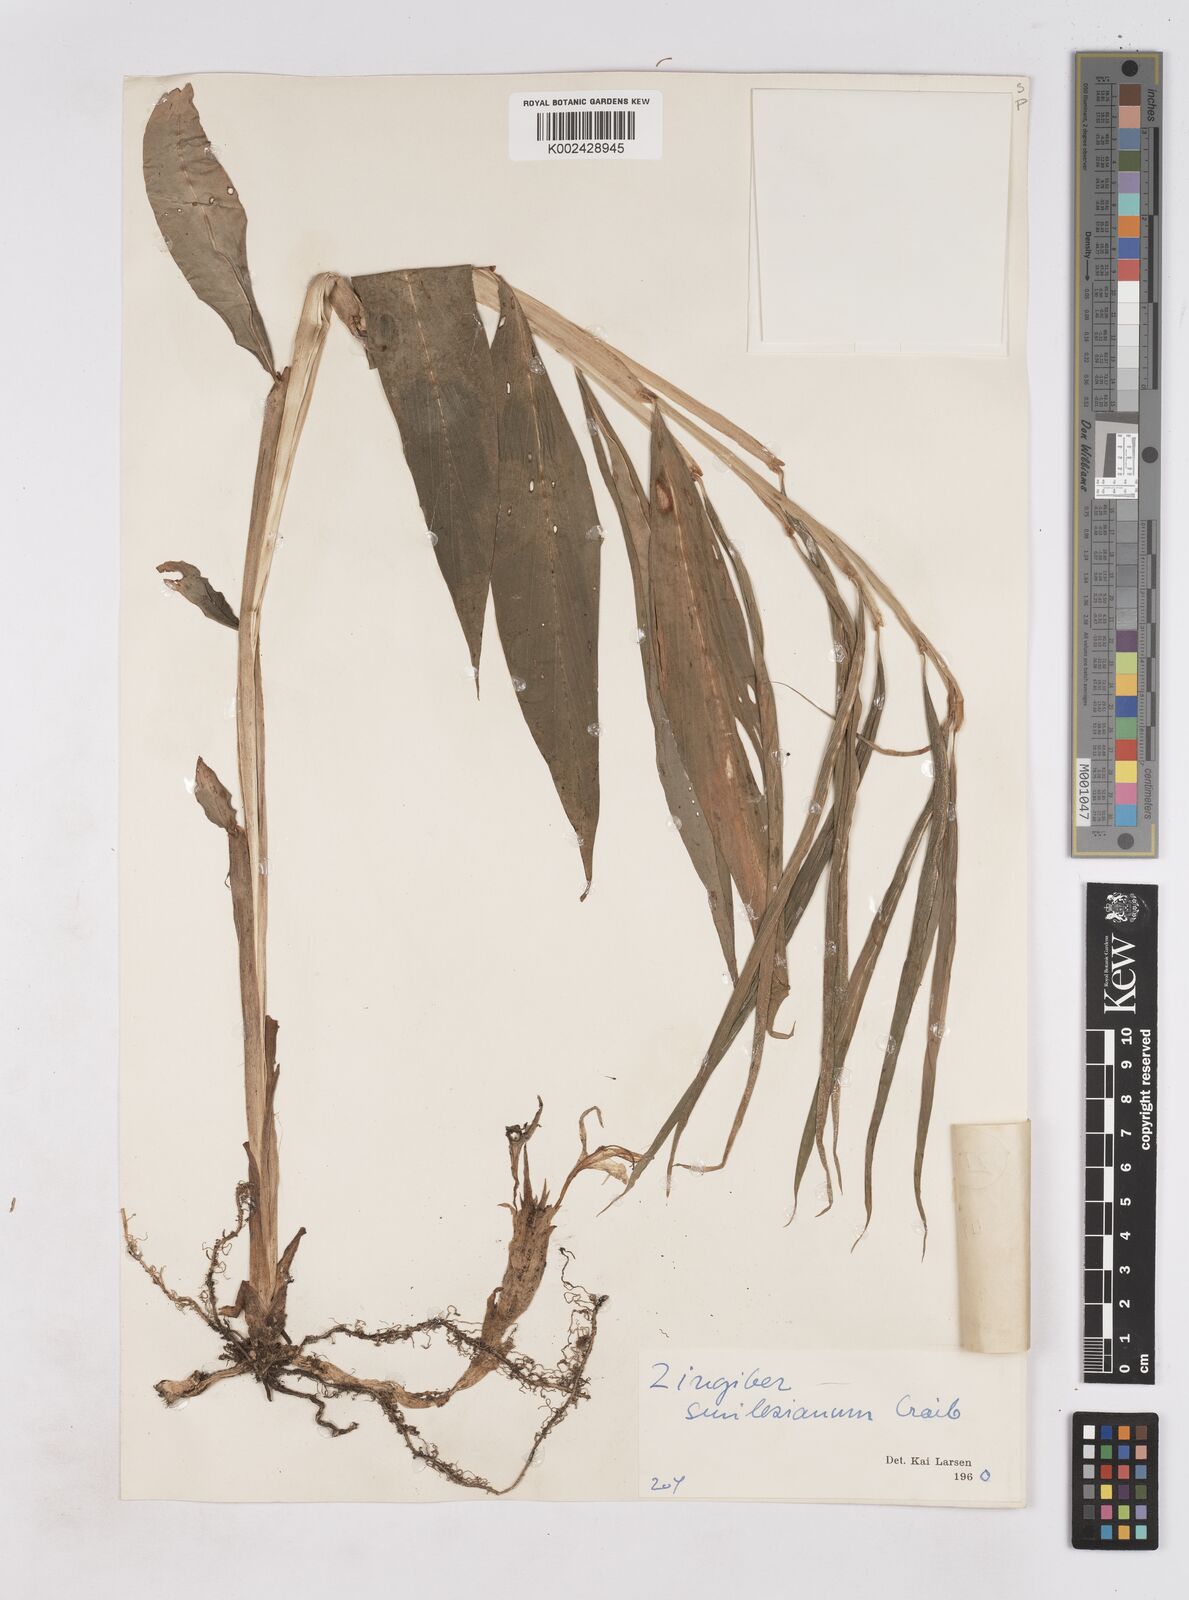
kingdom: Plantae
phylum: Tracheophyta
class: Liliopsida
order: Zingiberales
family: Zingiberaceae
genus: Zingiber
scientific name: Zingiber smilesianum
